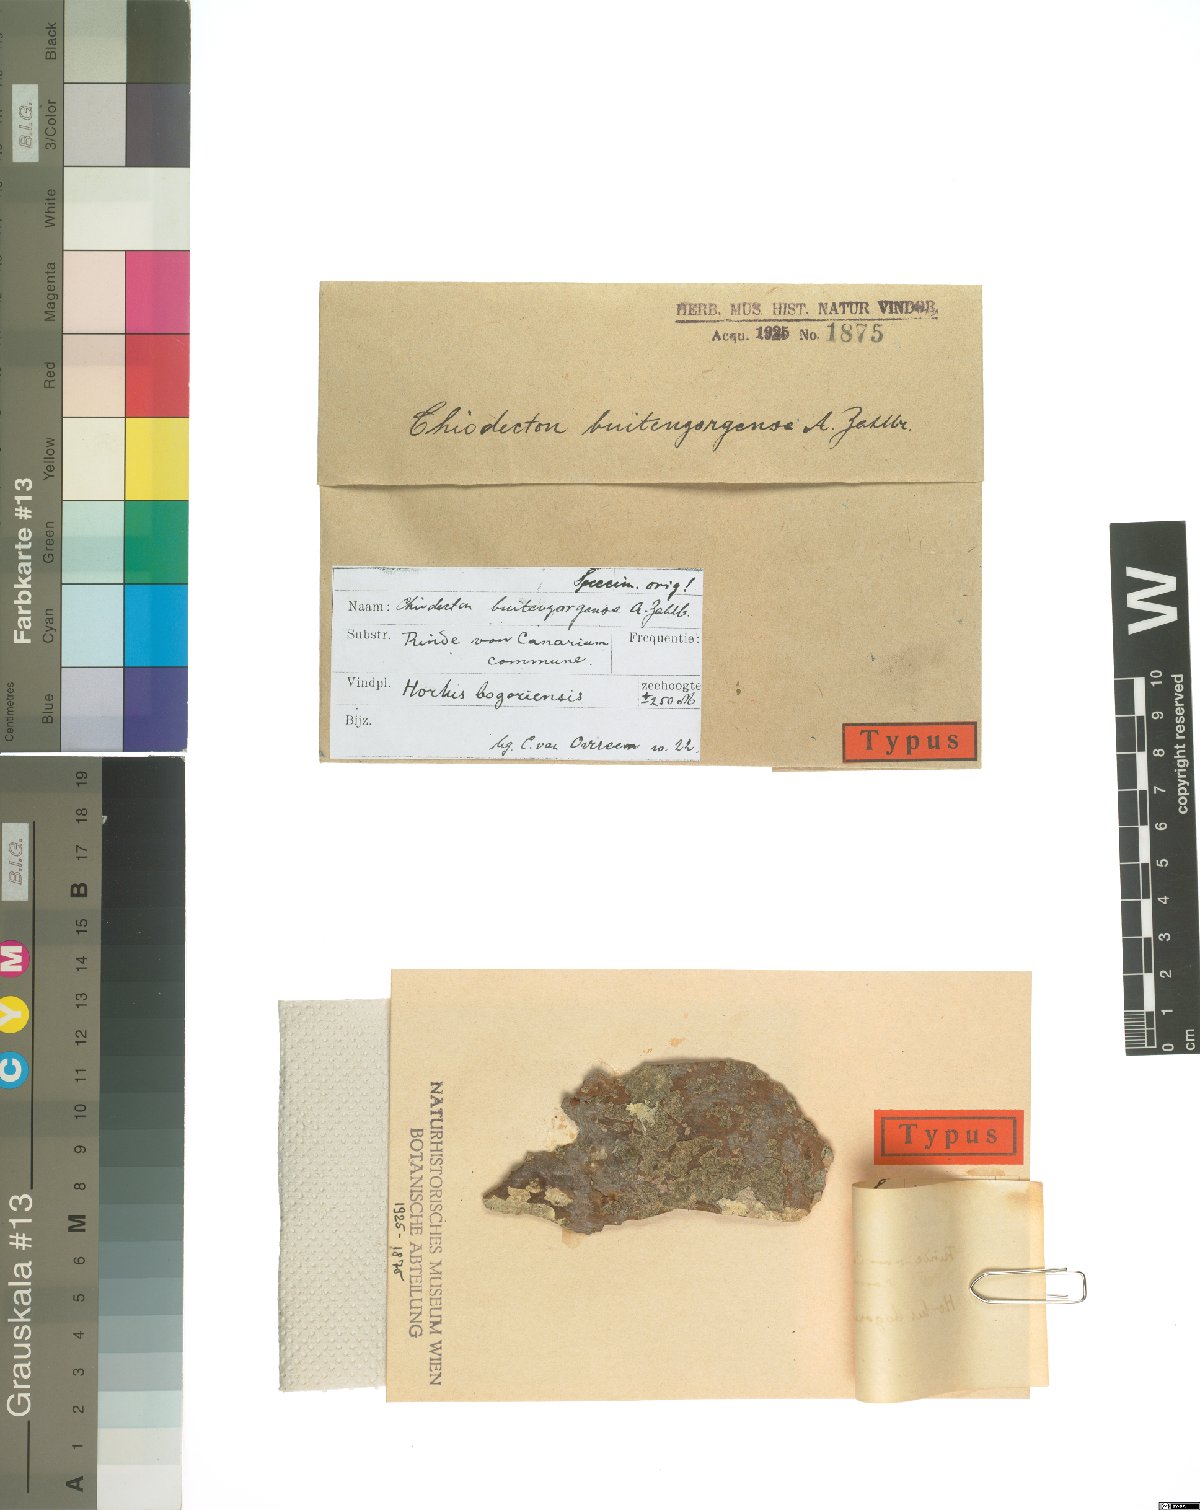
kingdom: Fungi
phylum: Ascomycota
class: Arthoniomycetes
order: Arthoniales
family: Roccellaceae
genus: Chiodecton
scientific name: Chiodecton buitenzorgense
